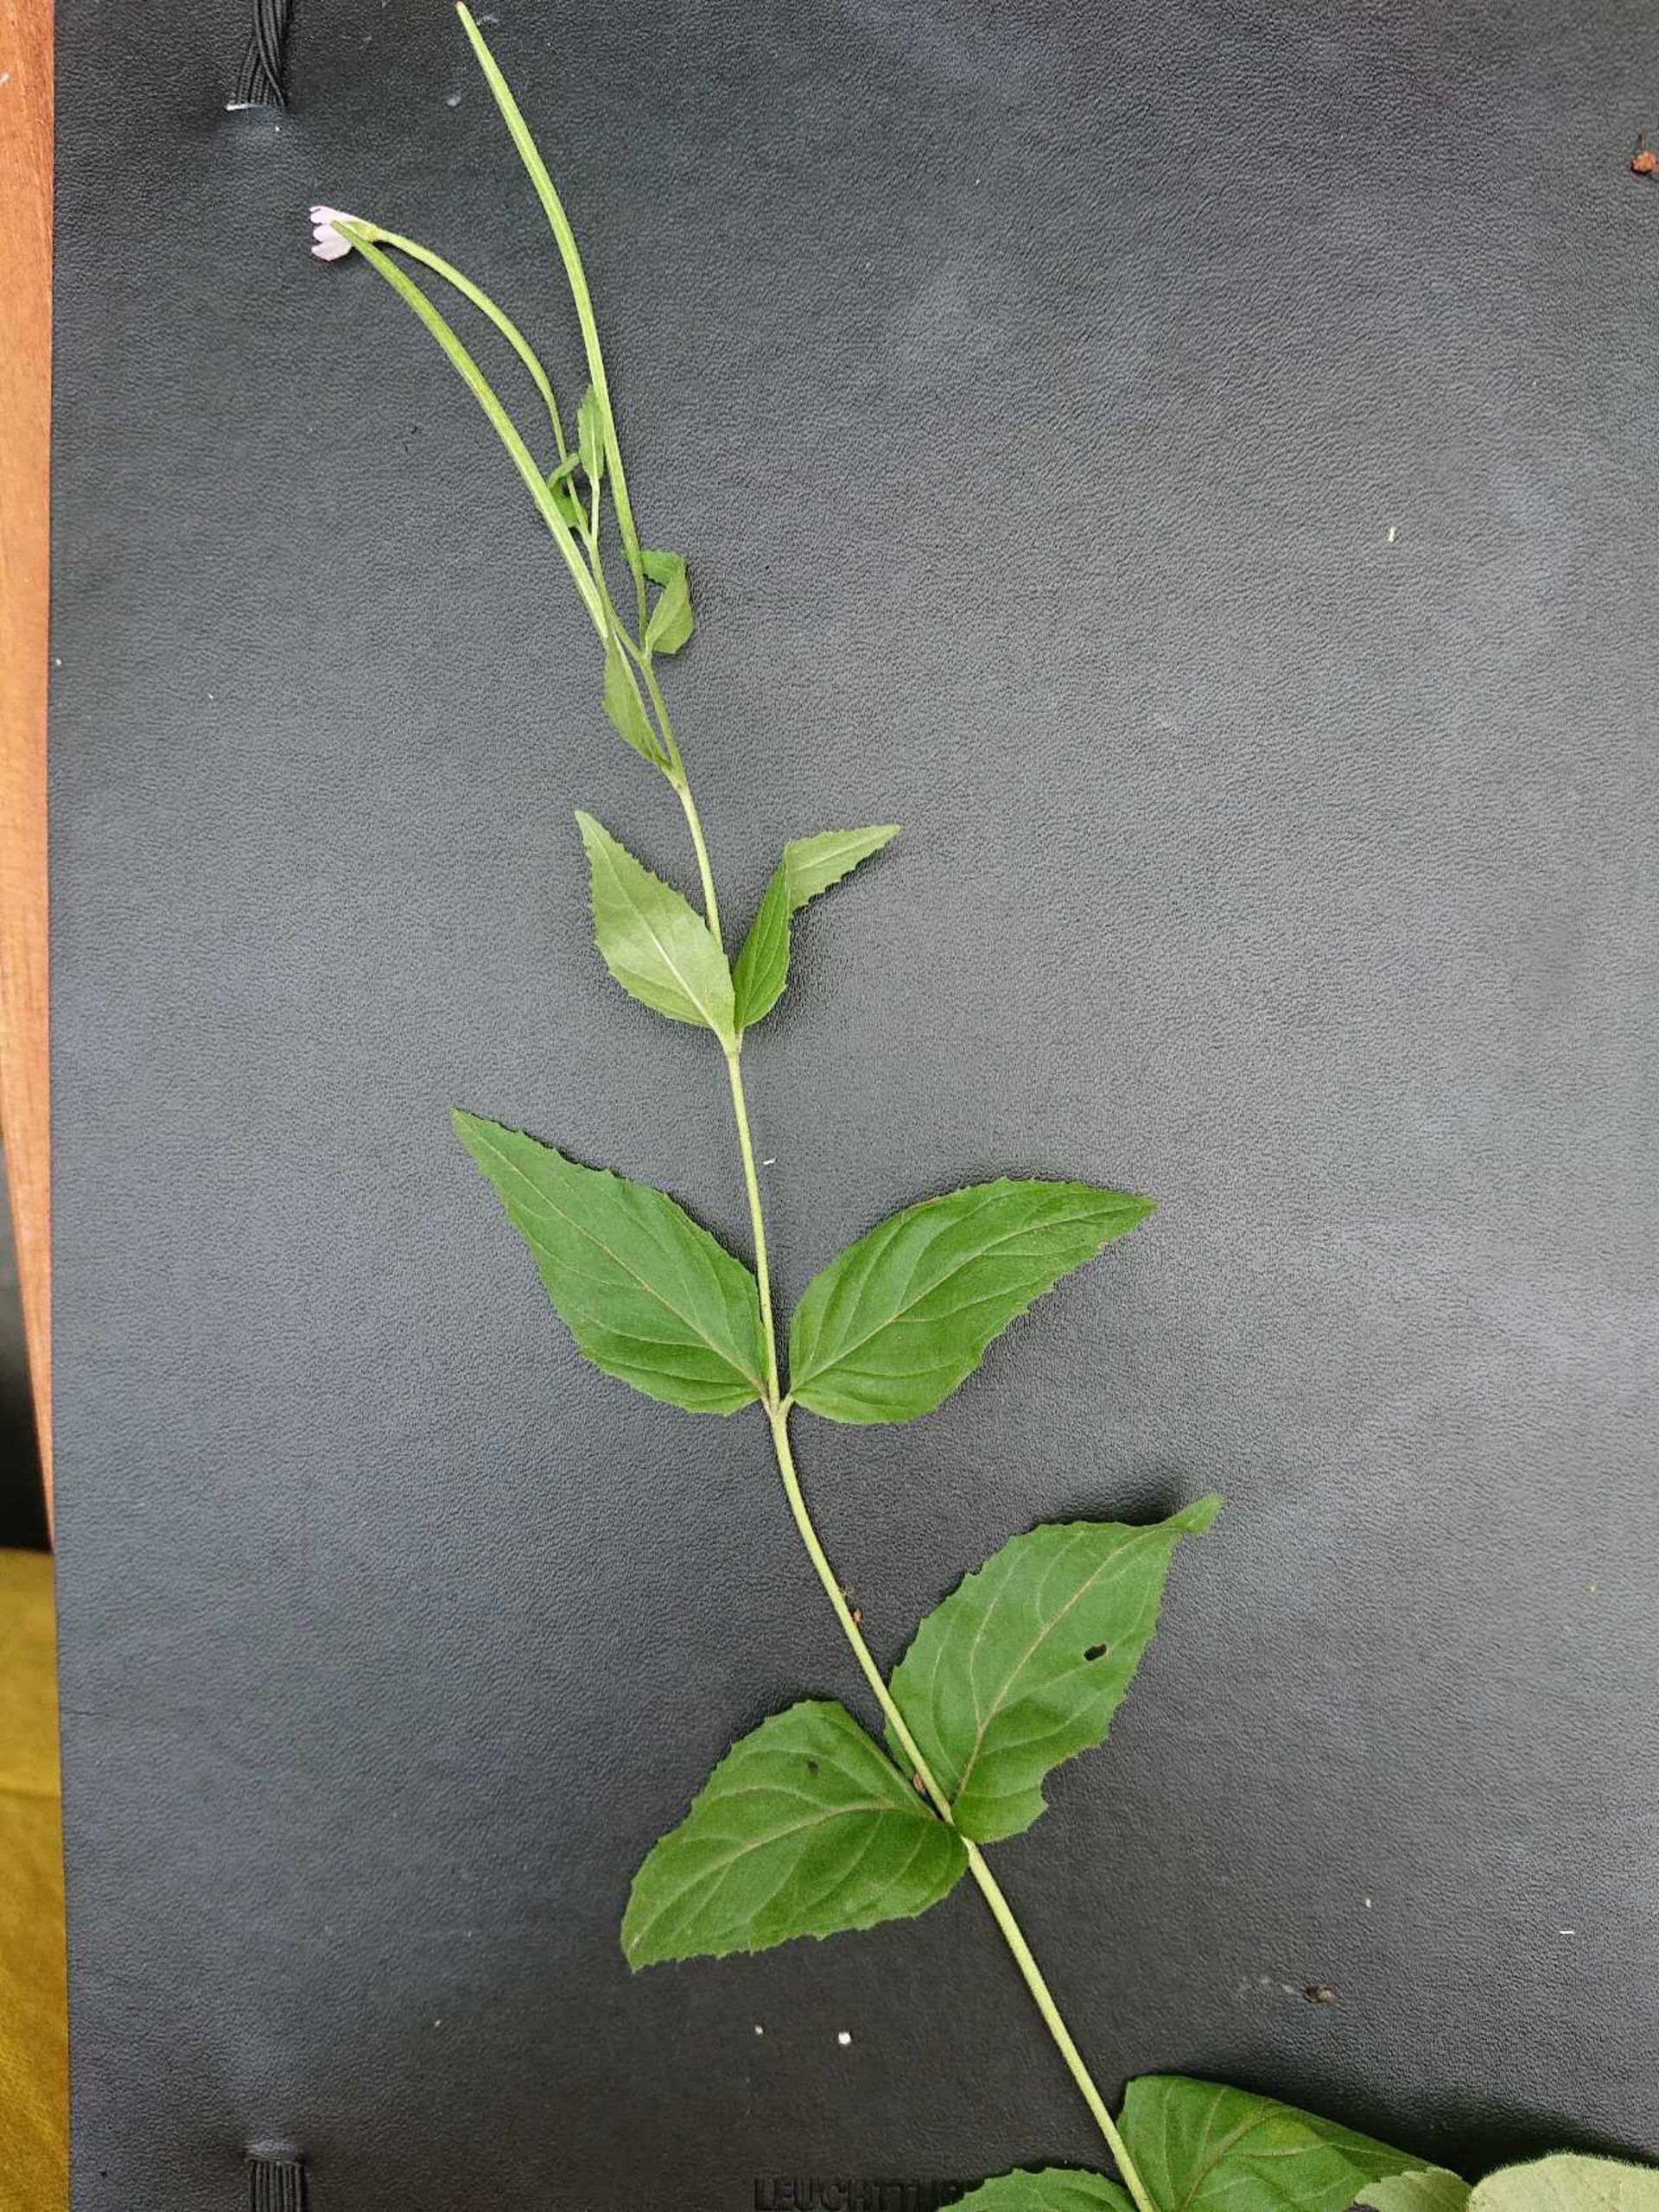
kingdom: Plantae
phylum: Tracheophyta
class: Magnoliopsida
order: Myrtales
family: Onagraceae
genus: Epilobium
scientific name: Epilobium montanum
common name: Glat dueurt
